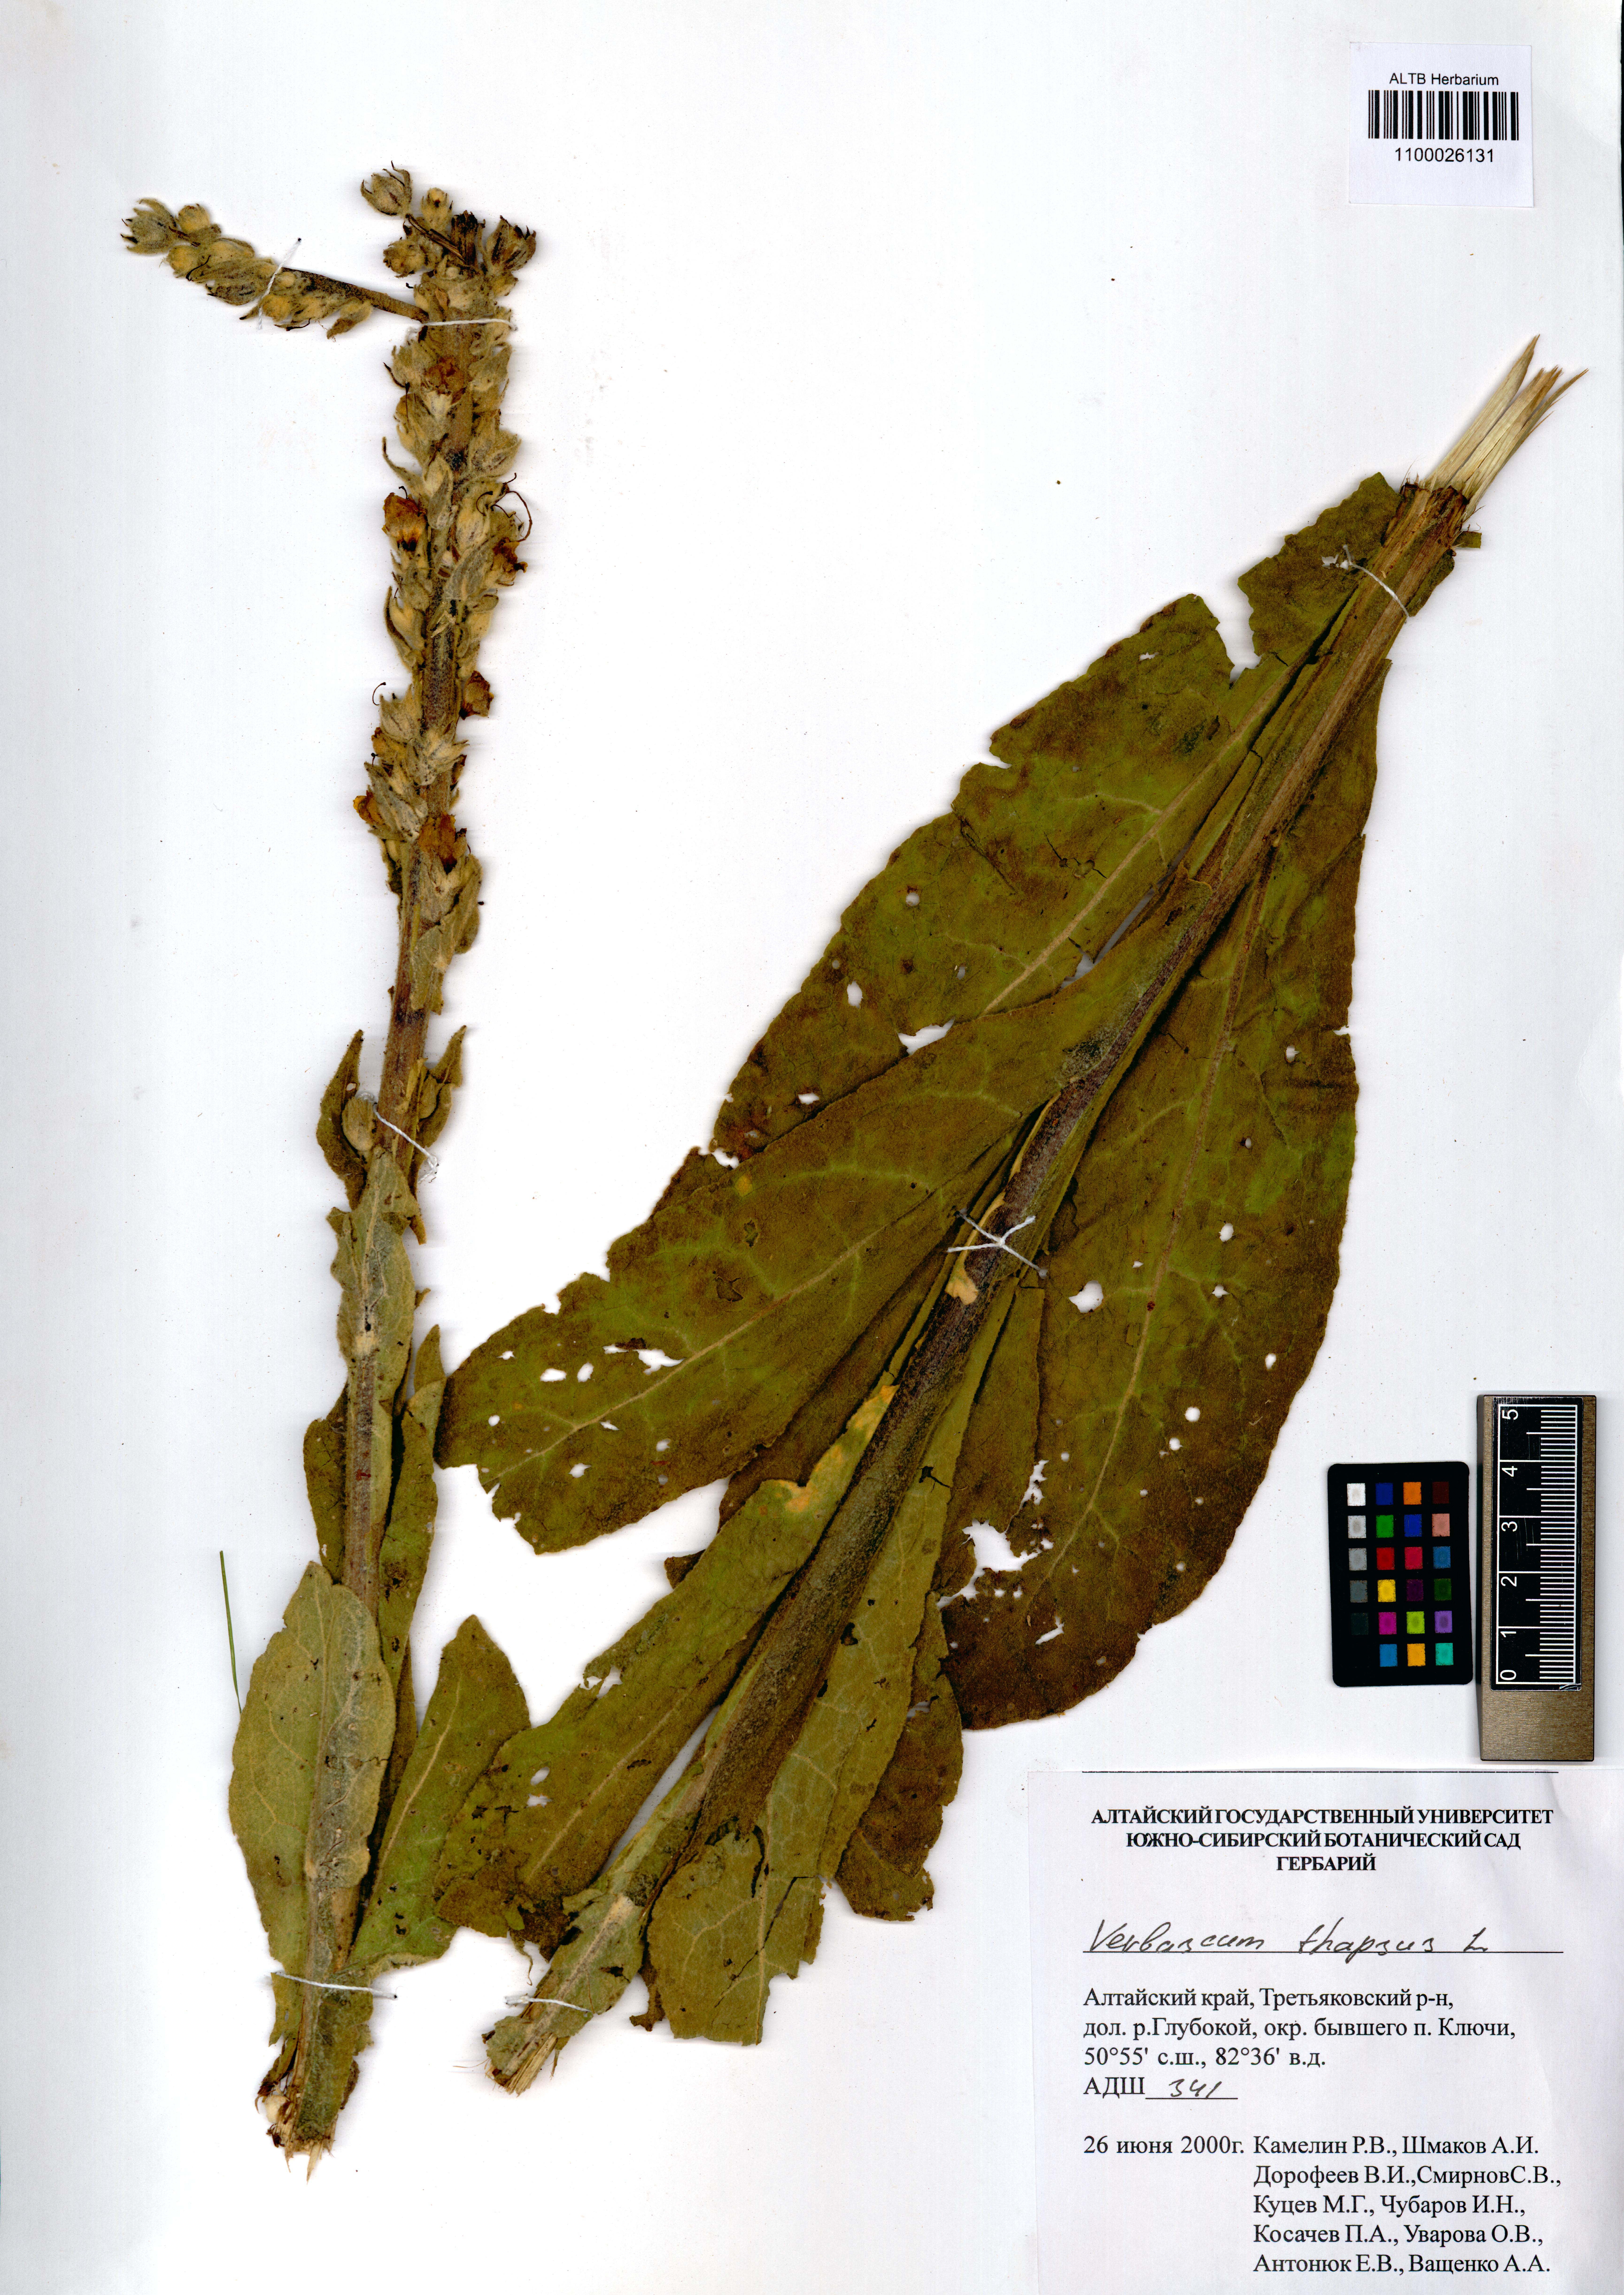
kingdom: Plantae
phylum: Tracheophyta
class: Magnoliopsida
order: Lamiales
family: Scrophulariaceae
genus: Verbascum
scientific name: Verbascum thapsus
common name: Common mullein
